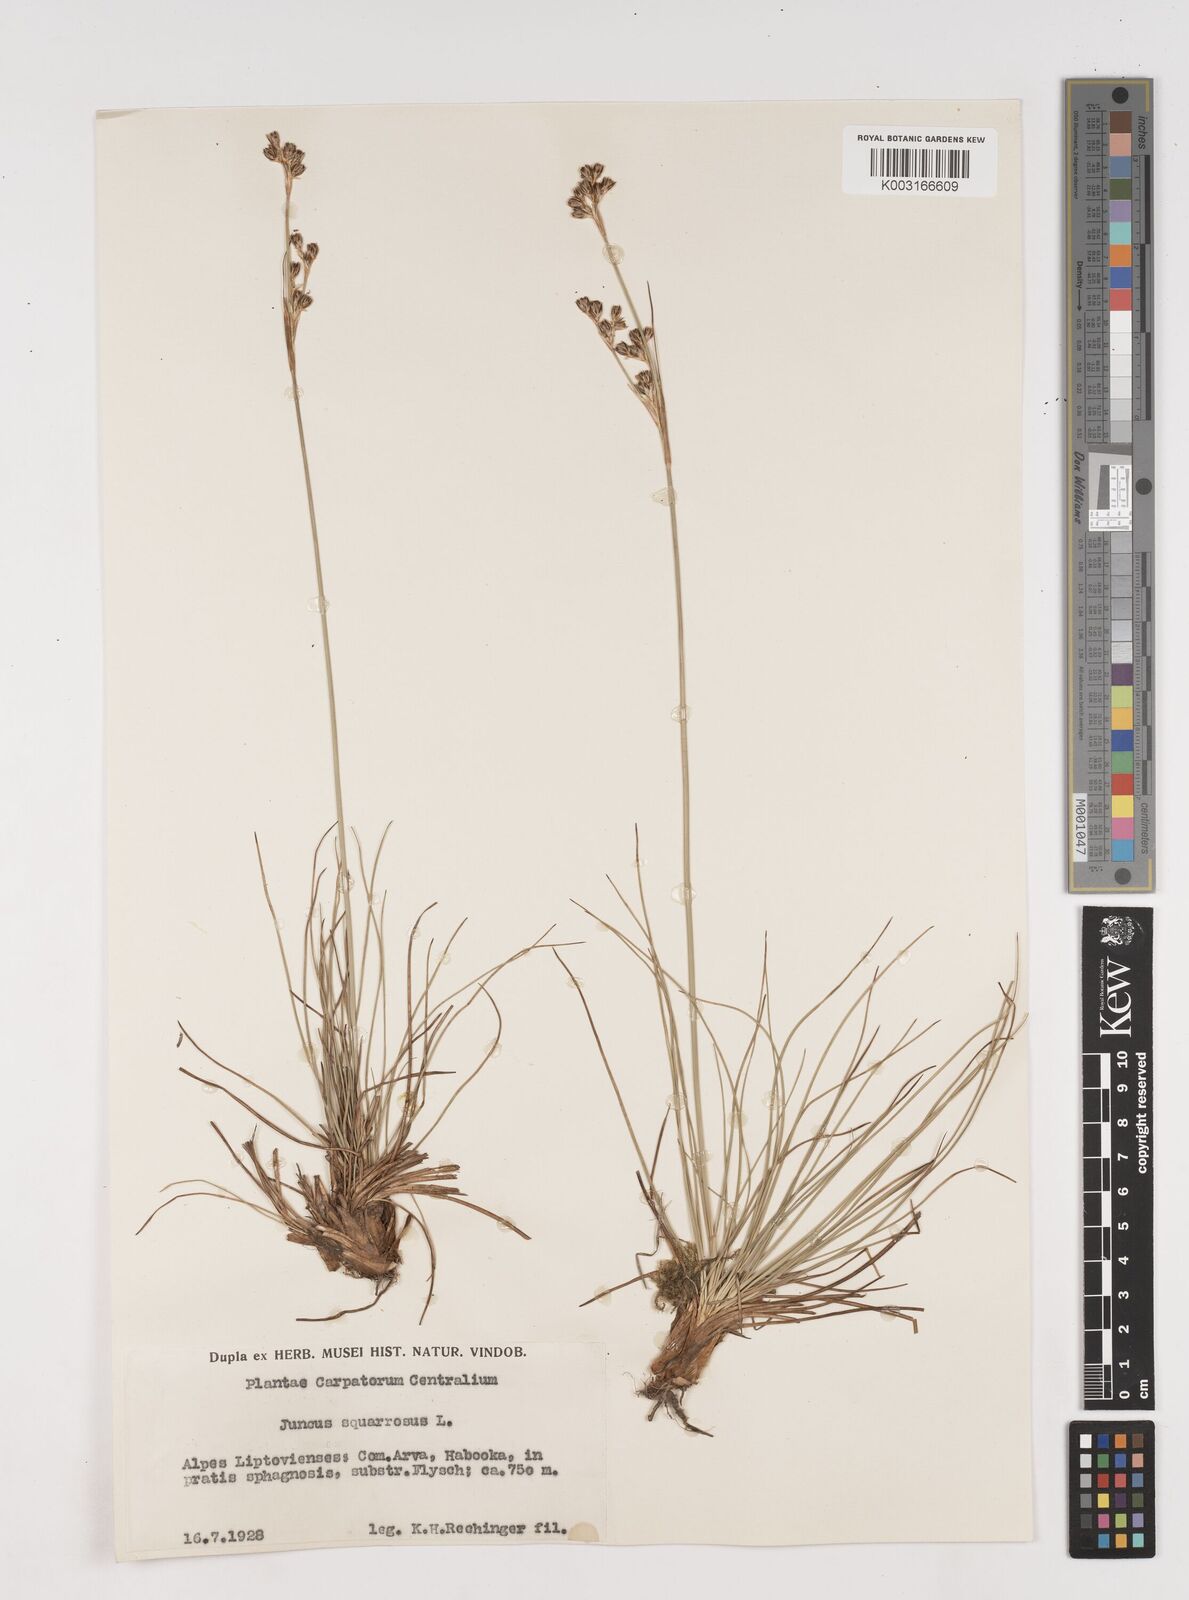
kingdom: Plantae
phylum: Tracheophyta
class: Liliopsida
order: Poales
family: Juncaceae
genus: Juncus
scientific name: Juncus squarrosus
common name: Heath rush
